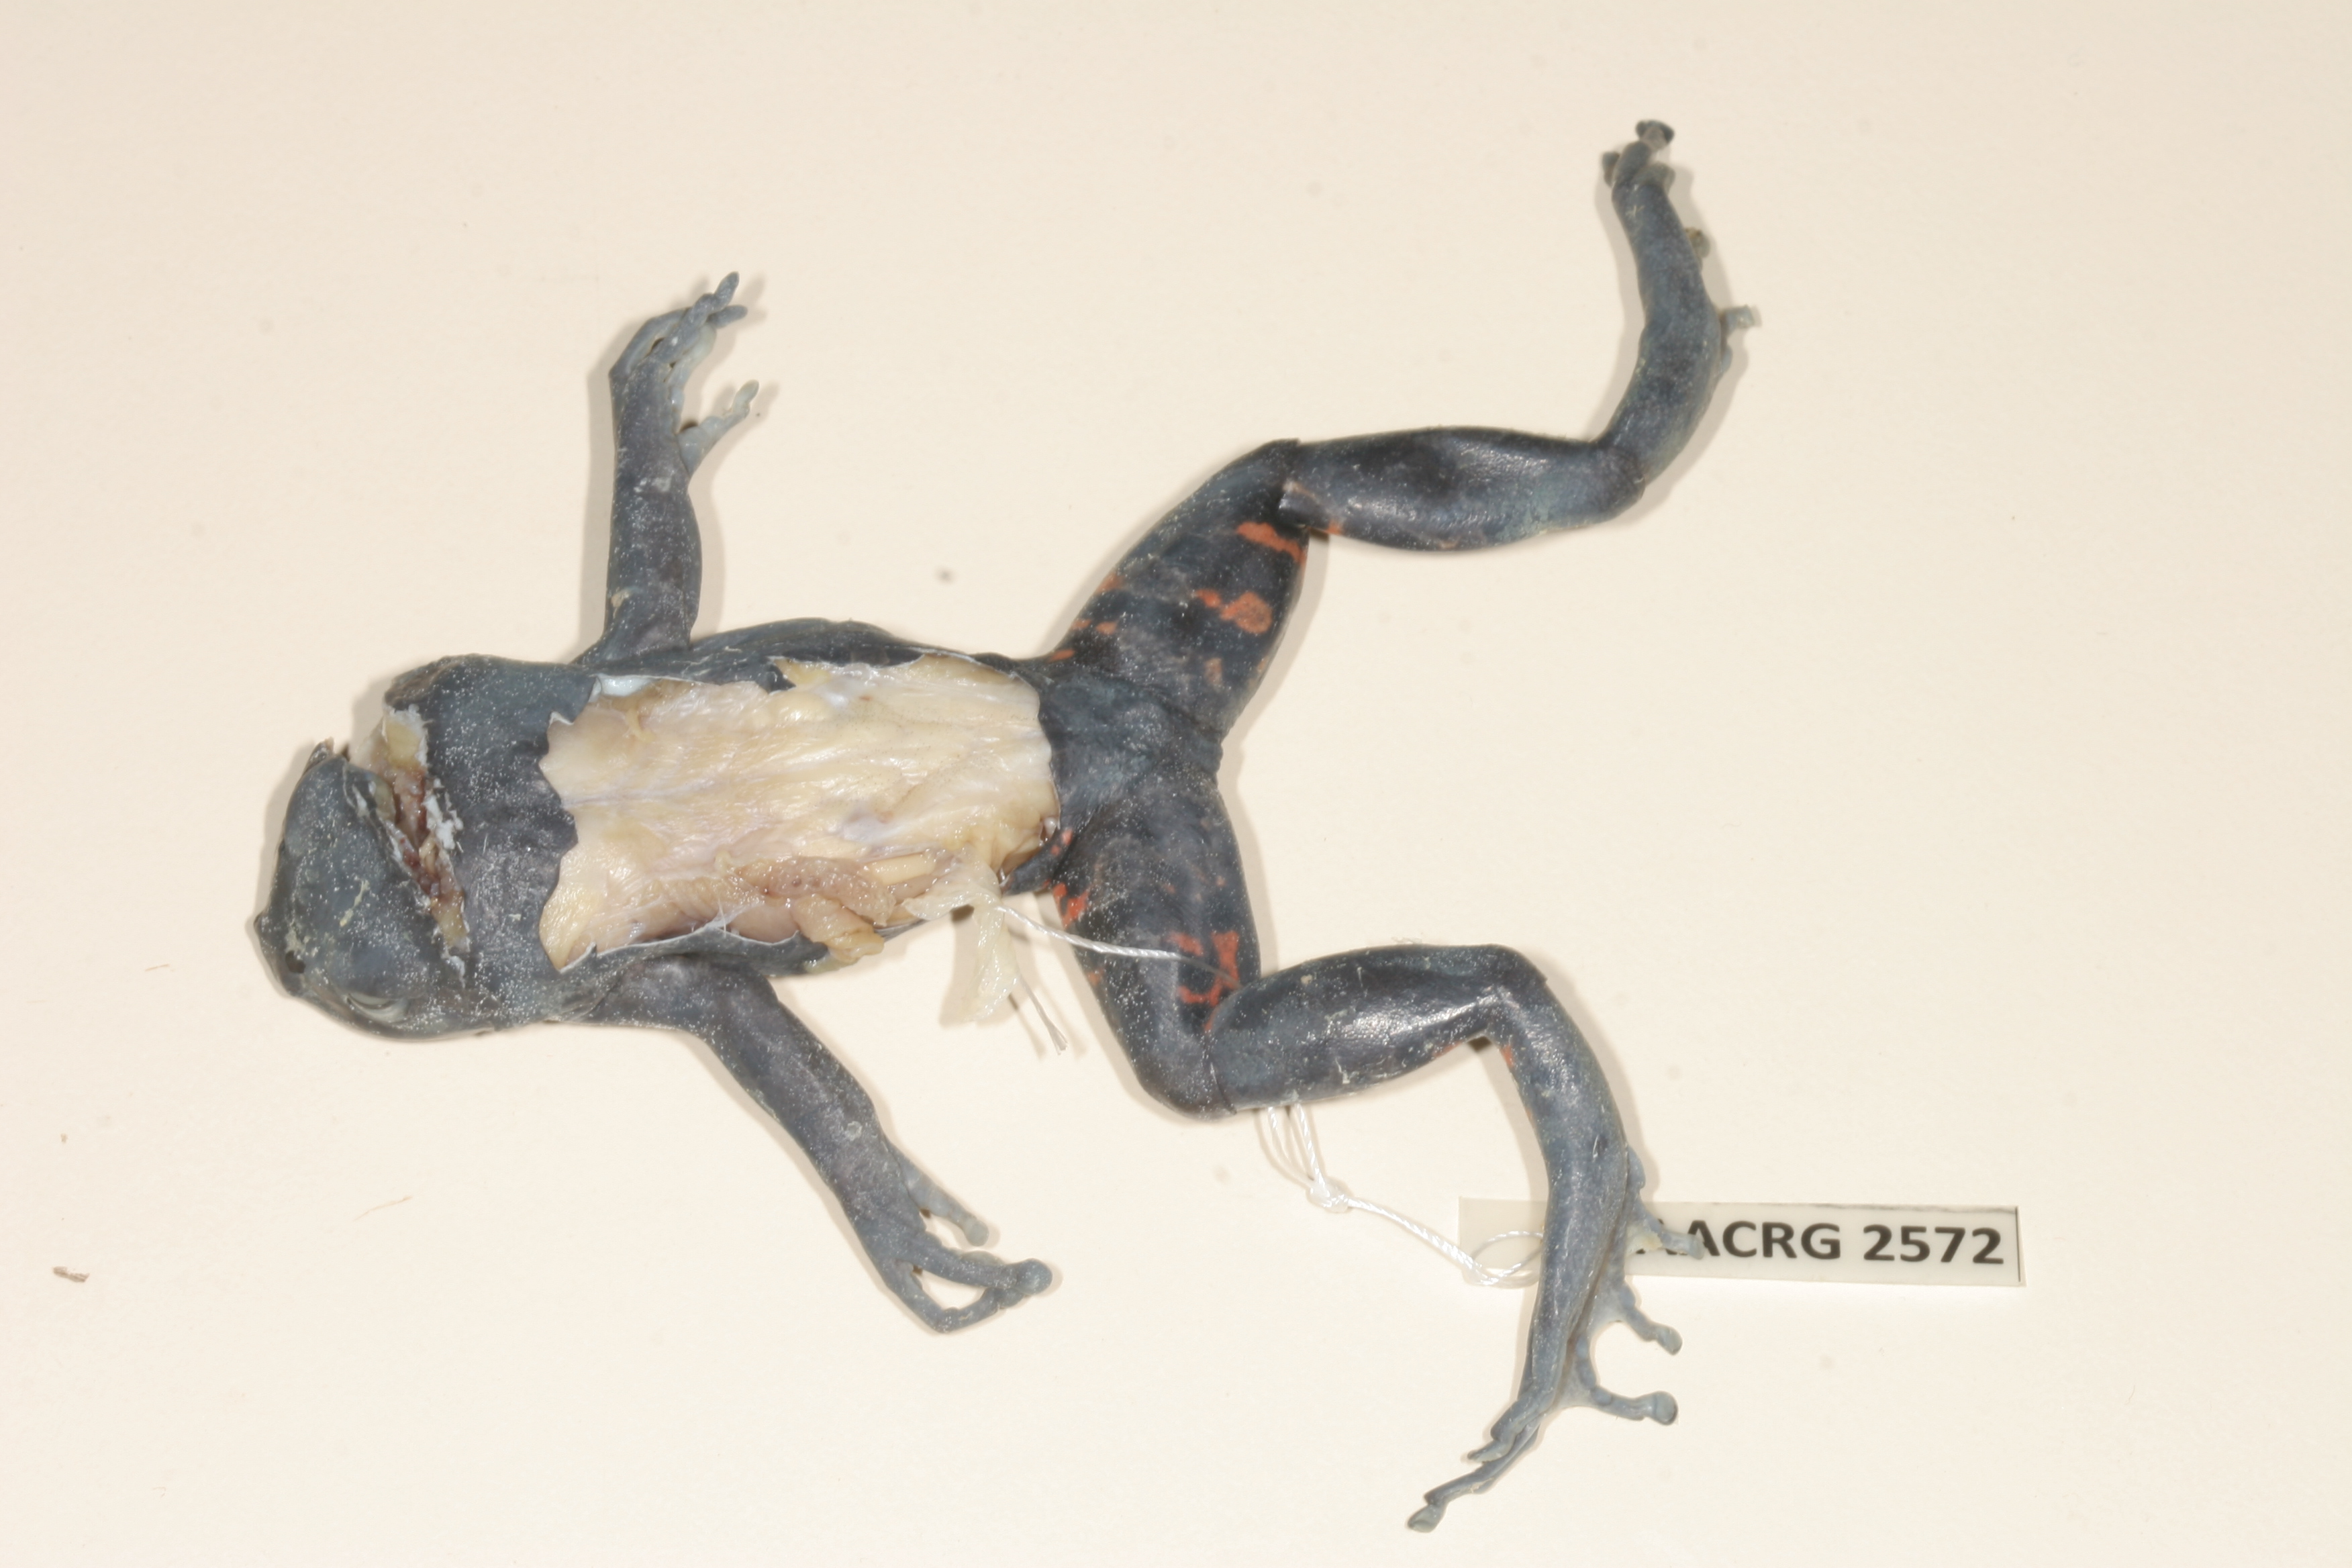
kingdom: Animalia
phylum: Chordata
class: Amphibia
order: Anura
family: Hyperoliidae
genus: Phlyctimantis
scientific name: Phlyctimantis maculatus
